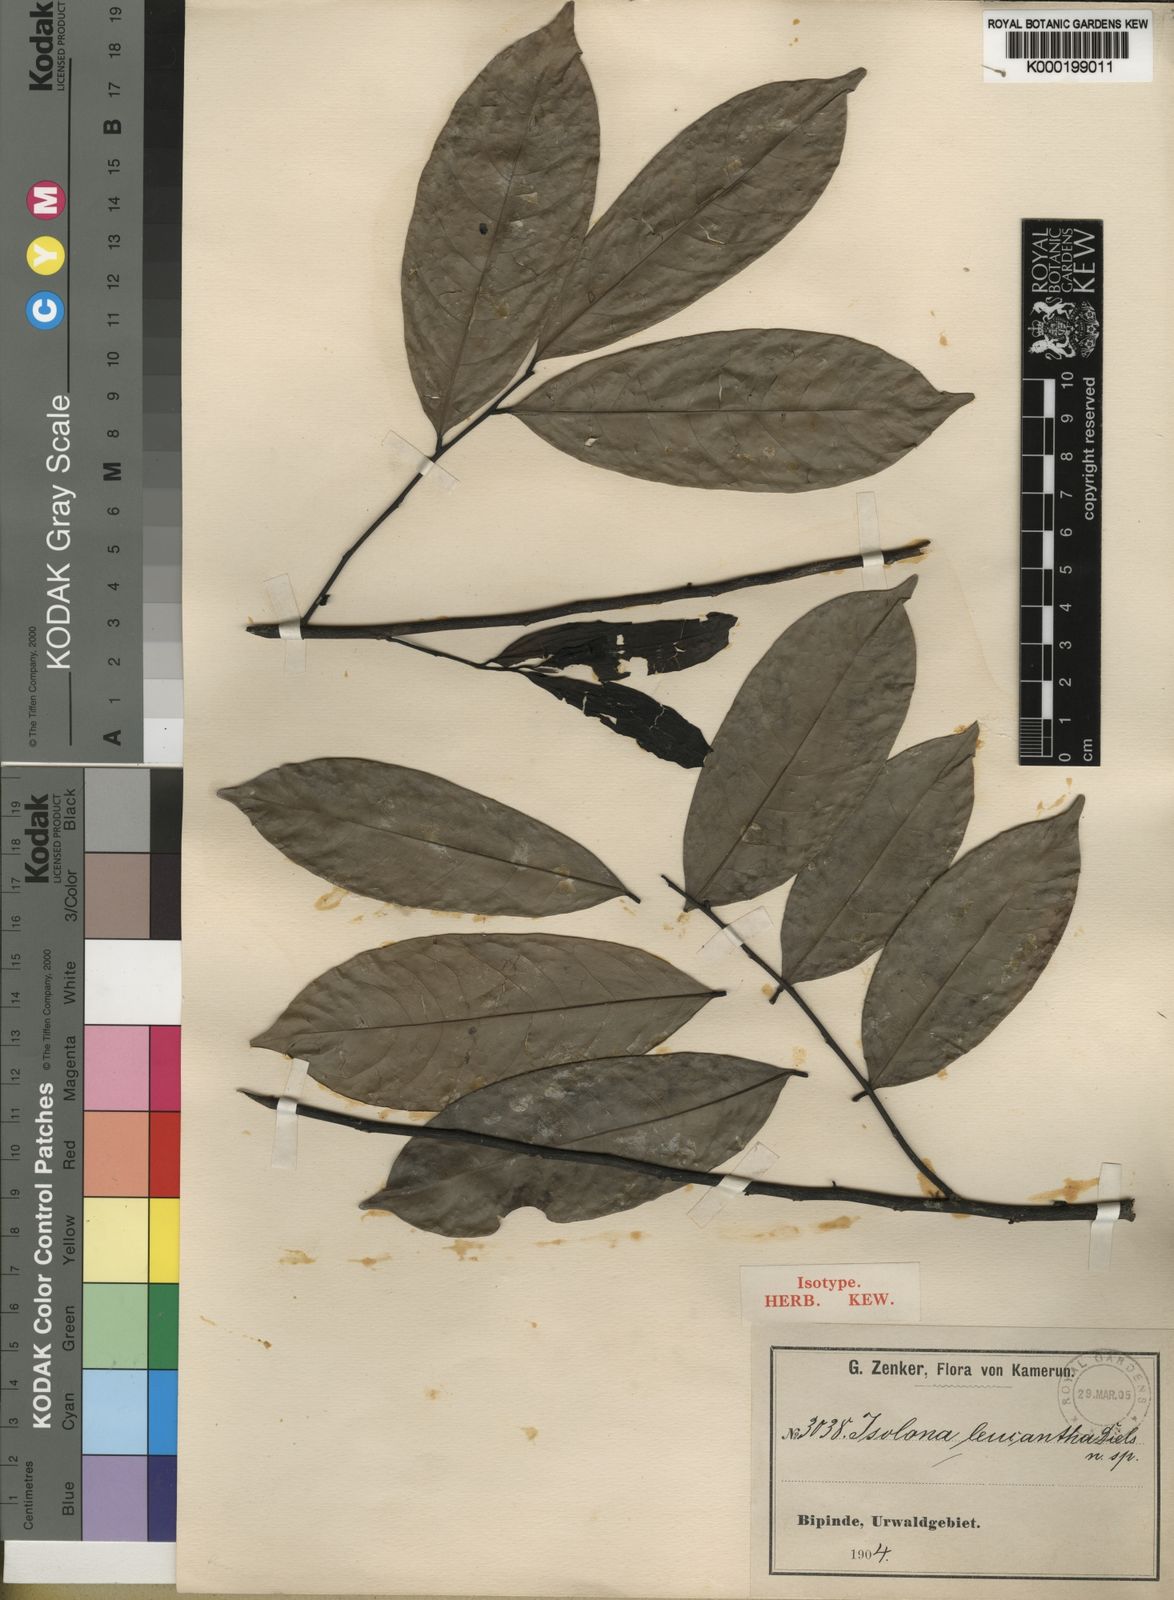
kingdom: Plantae
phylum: Tracheophyta
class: Magnoliopsida
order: Magnoliales
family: Annonaceae
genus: Isolona
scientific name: Isolona pleurocarpa
